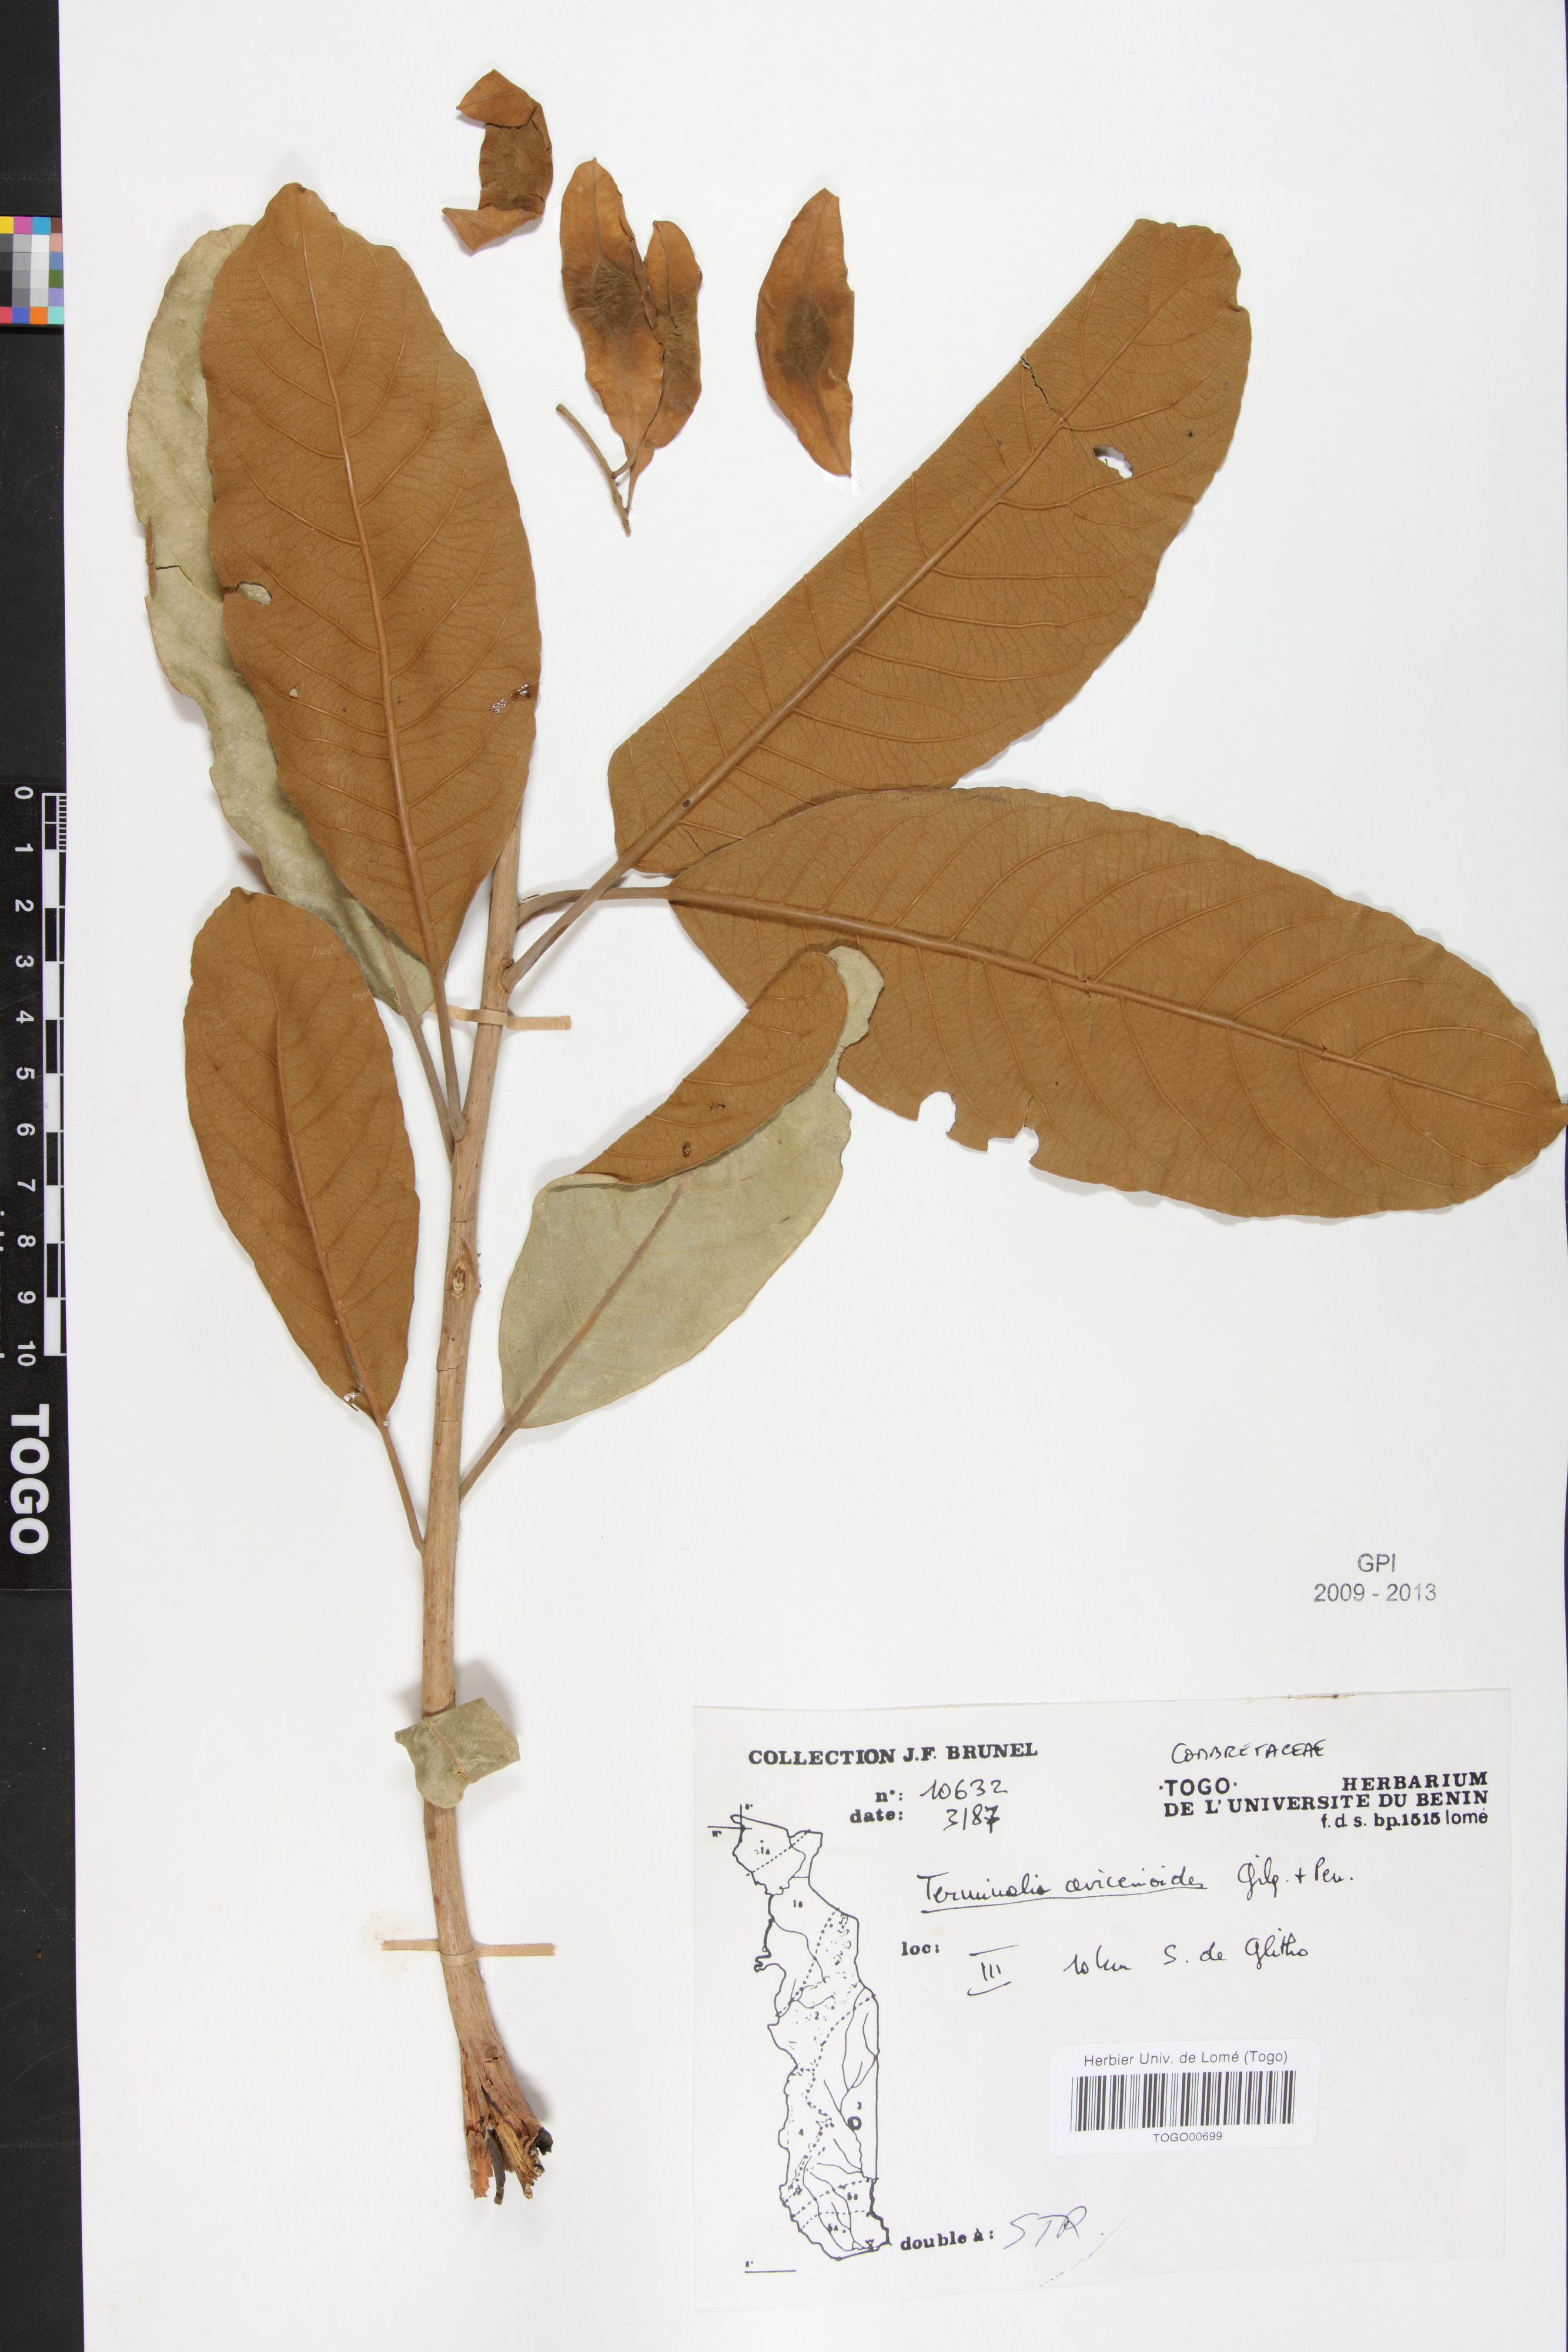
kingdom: Plantae
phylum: Tracheophyta
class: Magnoliopsida
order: Myrtales
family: Combretaceae
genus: Terminalia
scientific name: Terminalia avicennioides
